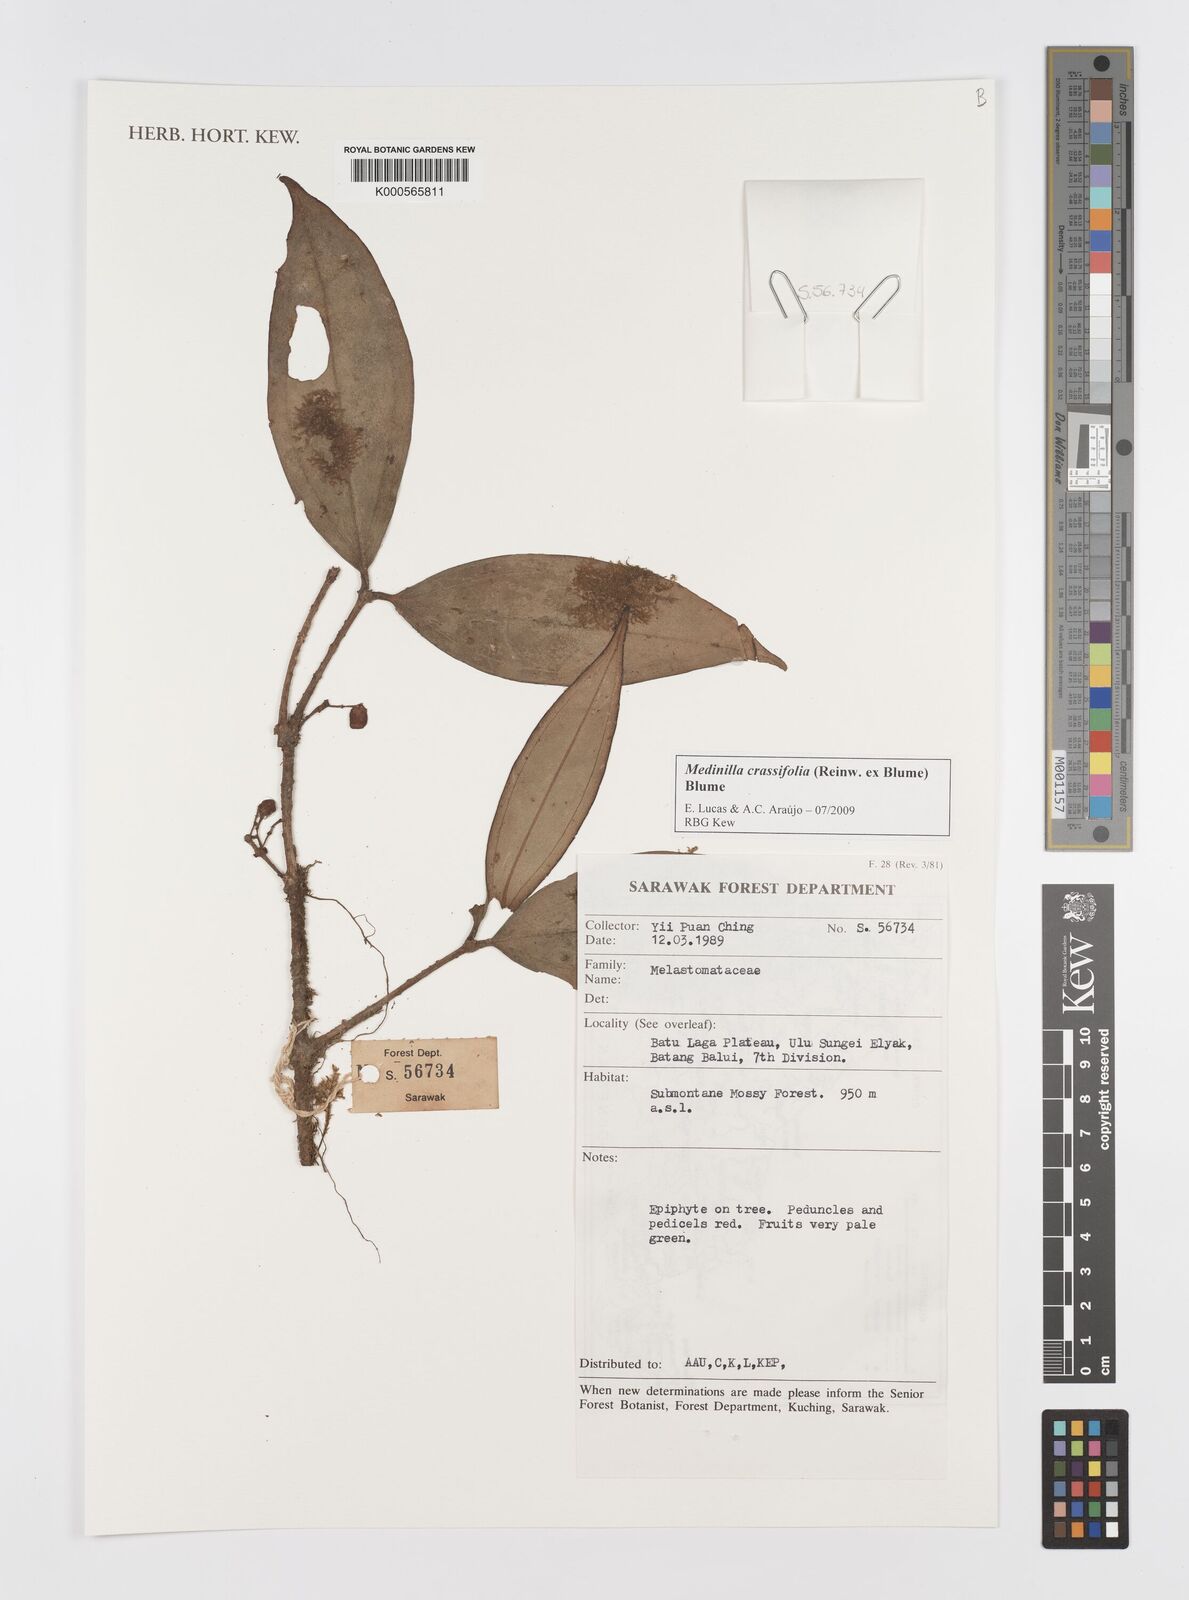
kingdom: Plantae
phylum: Tracheophyta
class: Magnoliopsida
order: Myrtales
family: Melastomataceae
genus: Medinilla
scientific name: Medinilla crassifolia
